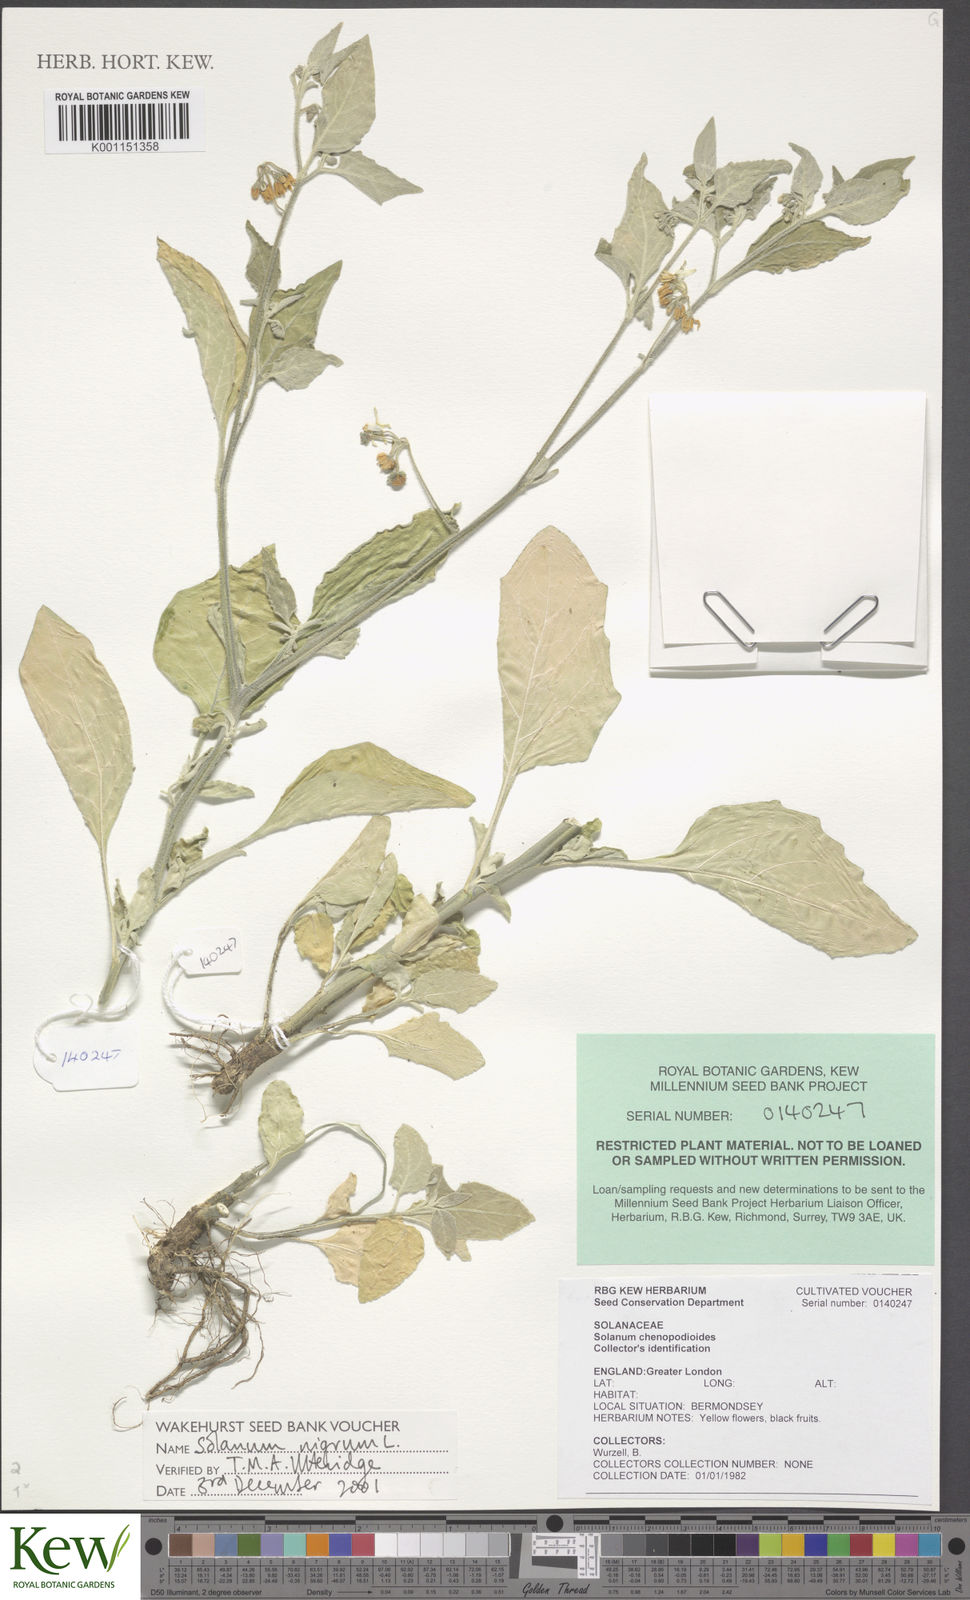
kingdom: Plantae
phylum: Tracheophyta
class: Magnoliopsida
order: Solanales
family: Solanaceae
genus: Solanum
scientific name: Solanum nigrum
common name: Black nightshade
